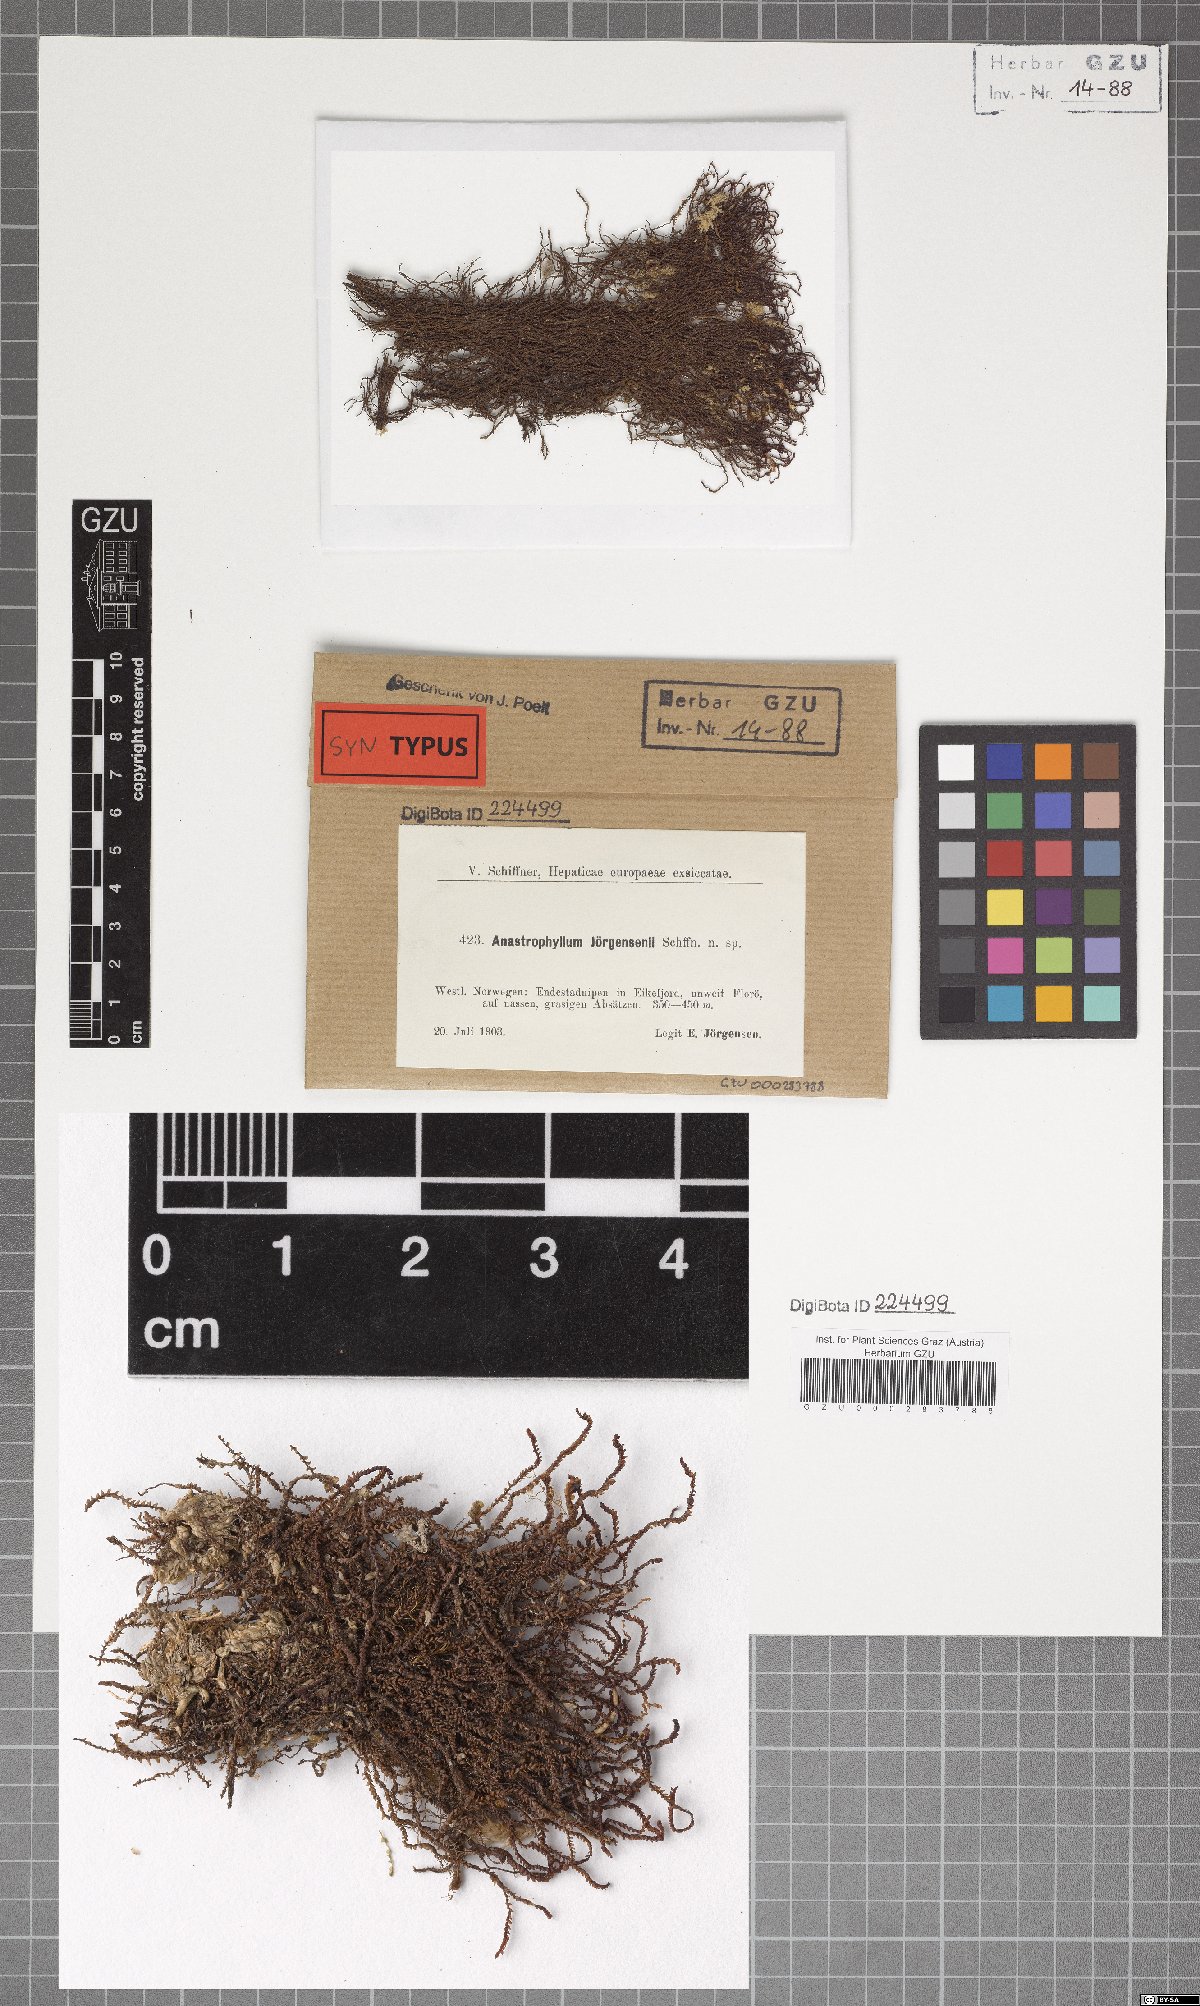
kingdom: Plantae
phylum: Marchantiophyta
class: Jungermanniopsida
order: Jungermanniales
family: Anastrophyllaceae
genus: Anastrophyllum
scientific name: Anastrophyllum joergensenii
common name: Joergensen's notchwort
